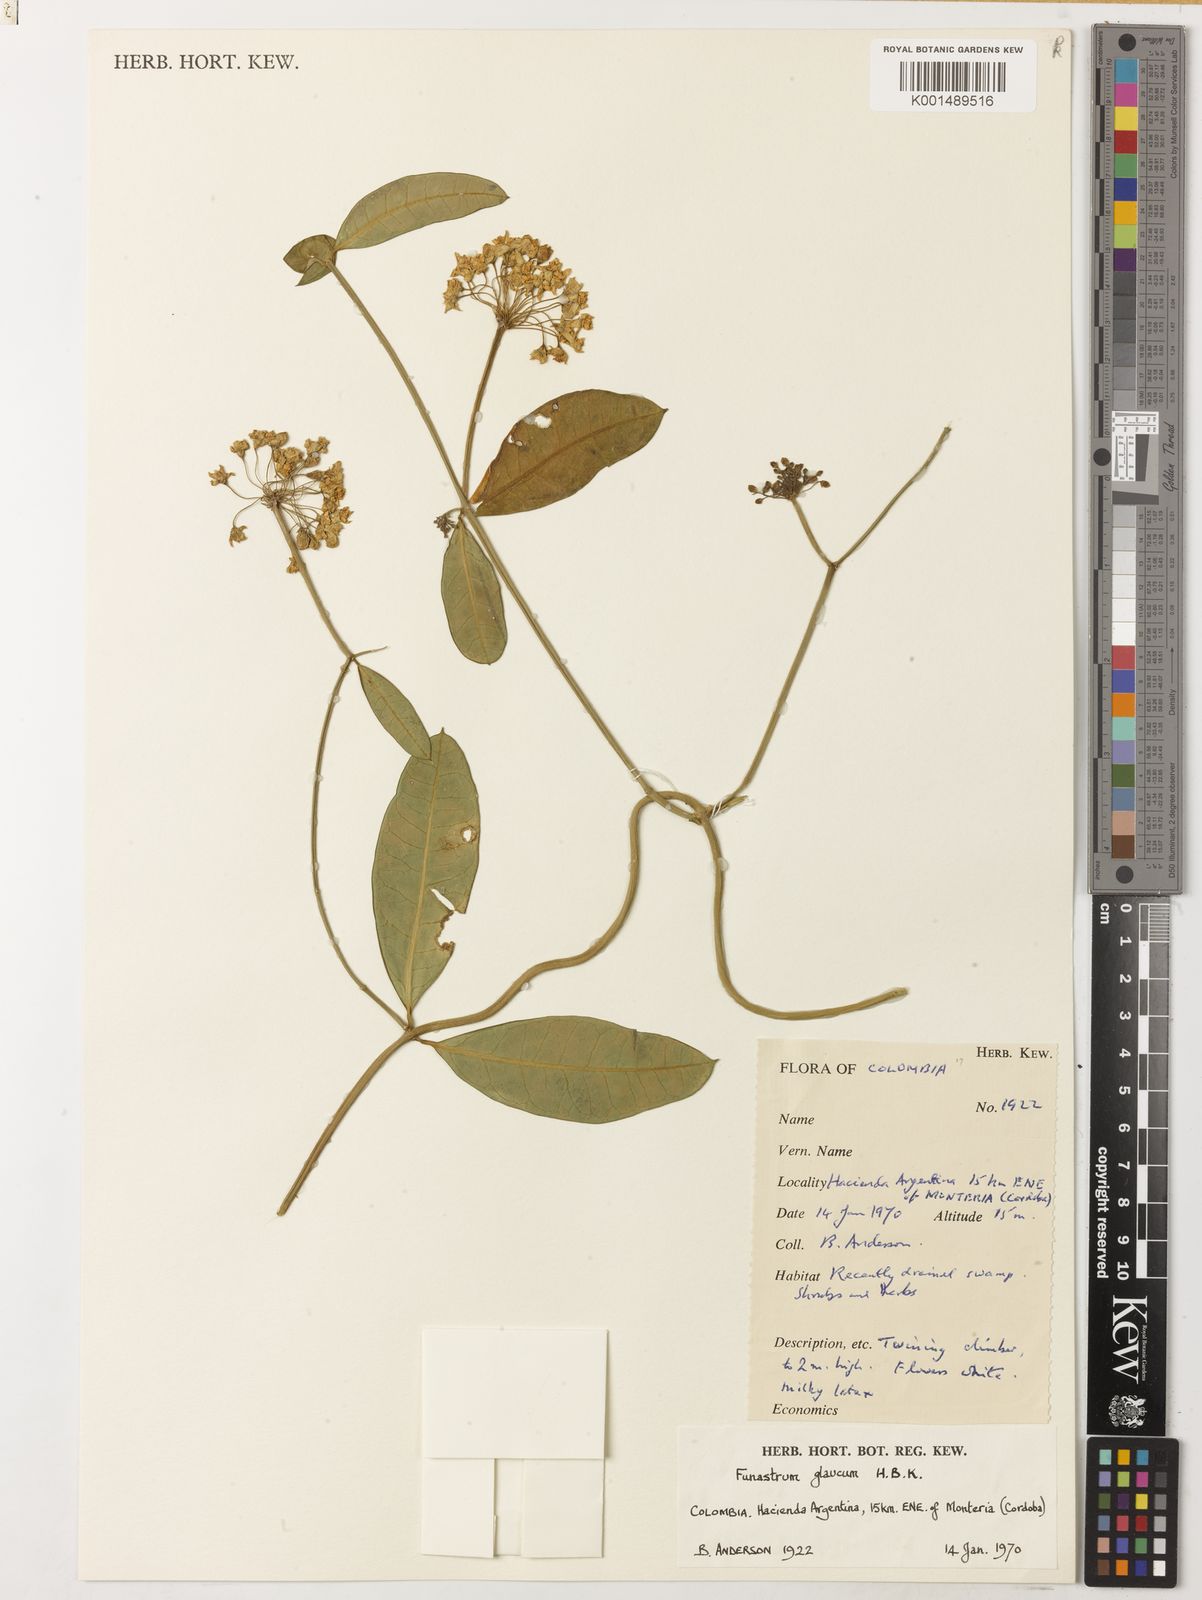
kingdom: Plantae
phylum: Tracheophyta
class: Magnoliopsida
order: Gentianales
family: Apocynaceae
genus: Funastrum
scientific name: Funastrum glaucum
